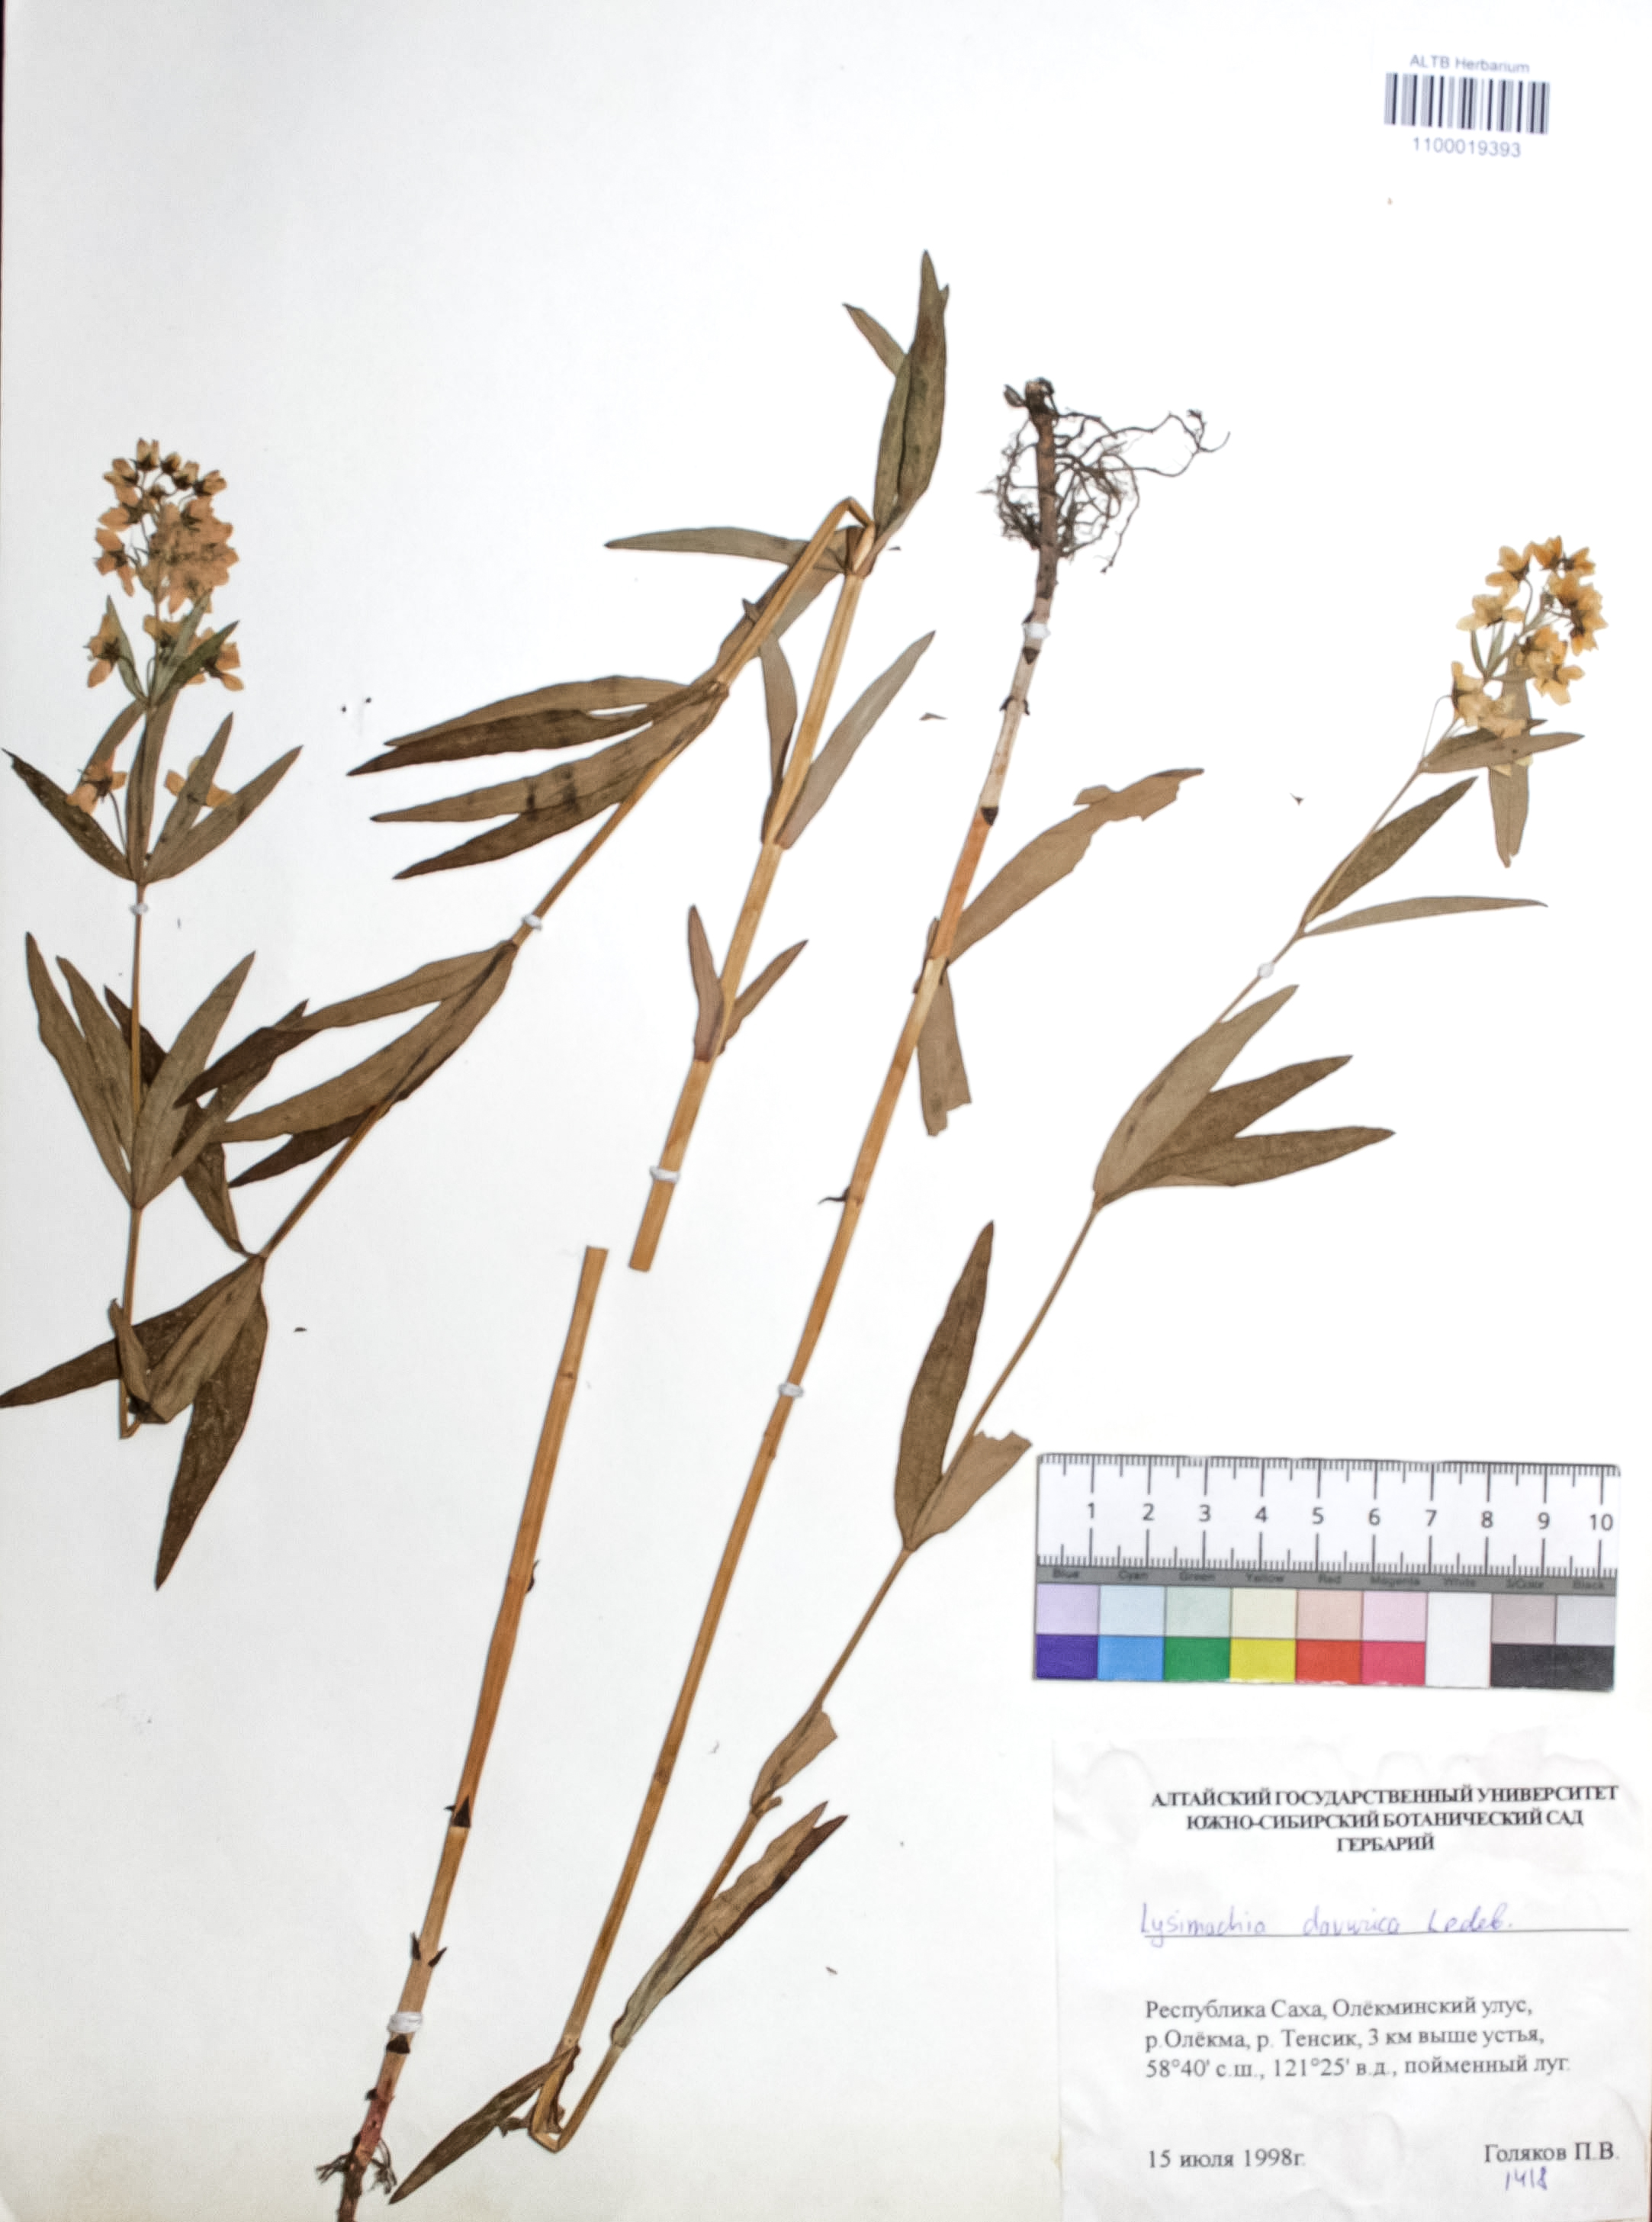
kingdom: Plantae
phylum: Tracheophyta
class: Magnoliopsida
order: Ericales
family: Primulaceae
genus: Lysimachia
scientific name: Lysimachia davurica
